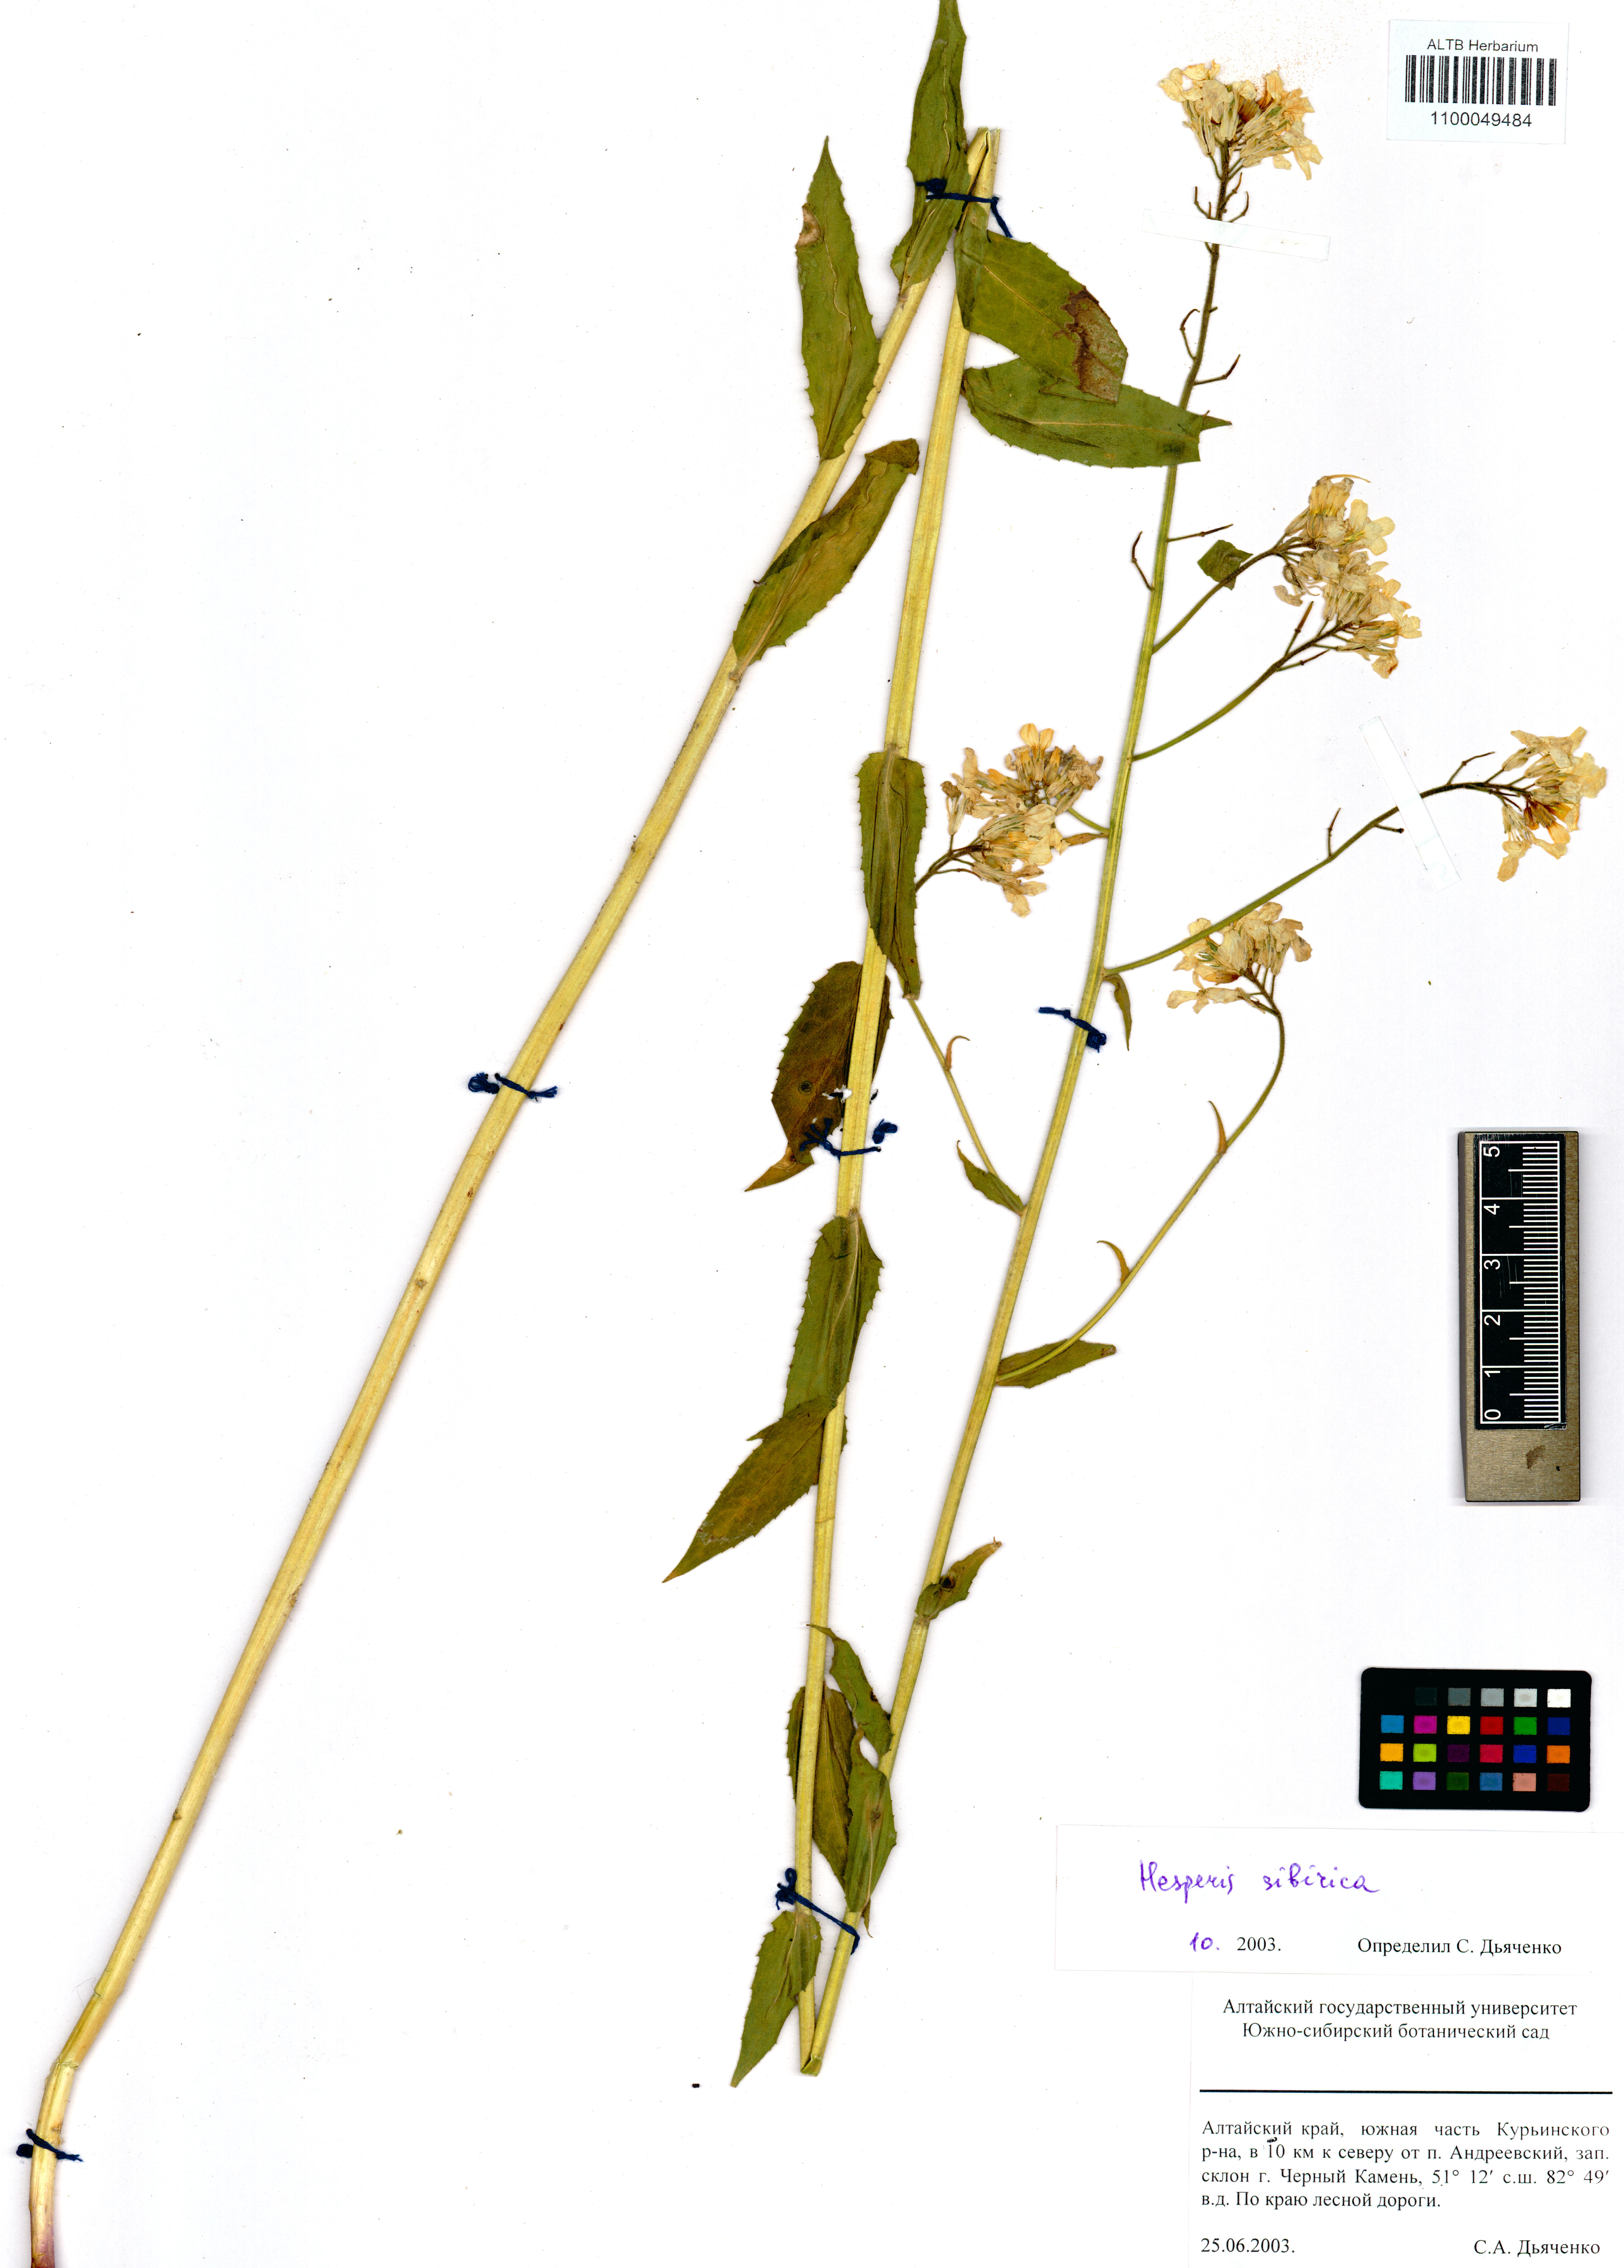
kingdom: Plantae
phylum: Tracheophyta
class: Magnoliopsida
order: Brassicales
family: Brassicaceae
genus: Hesperis
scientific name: Hesperis sibirica
